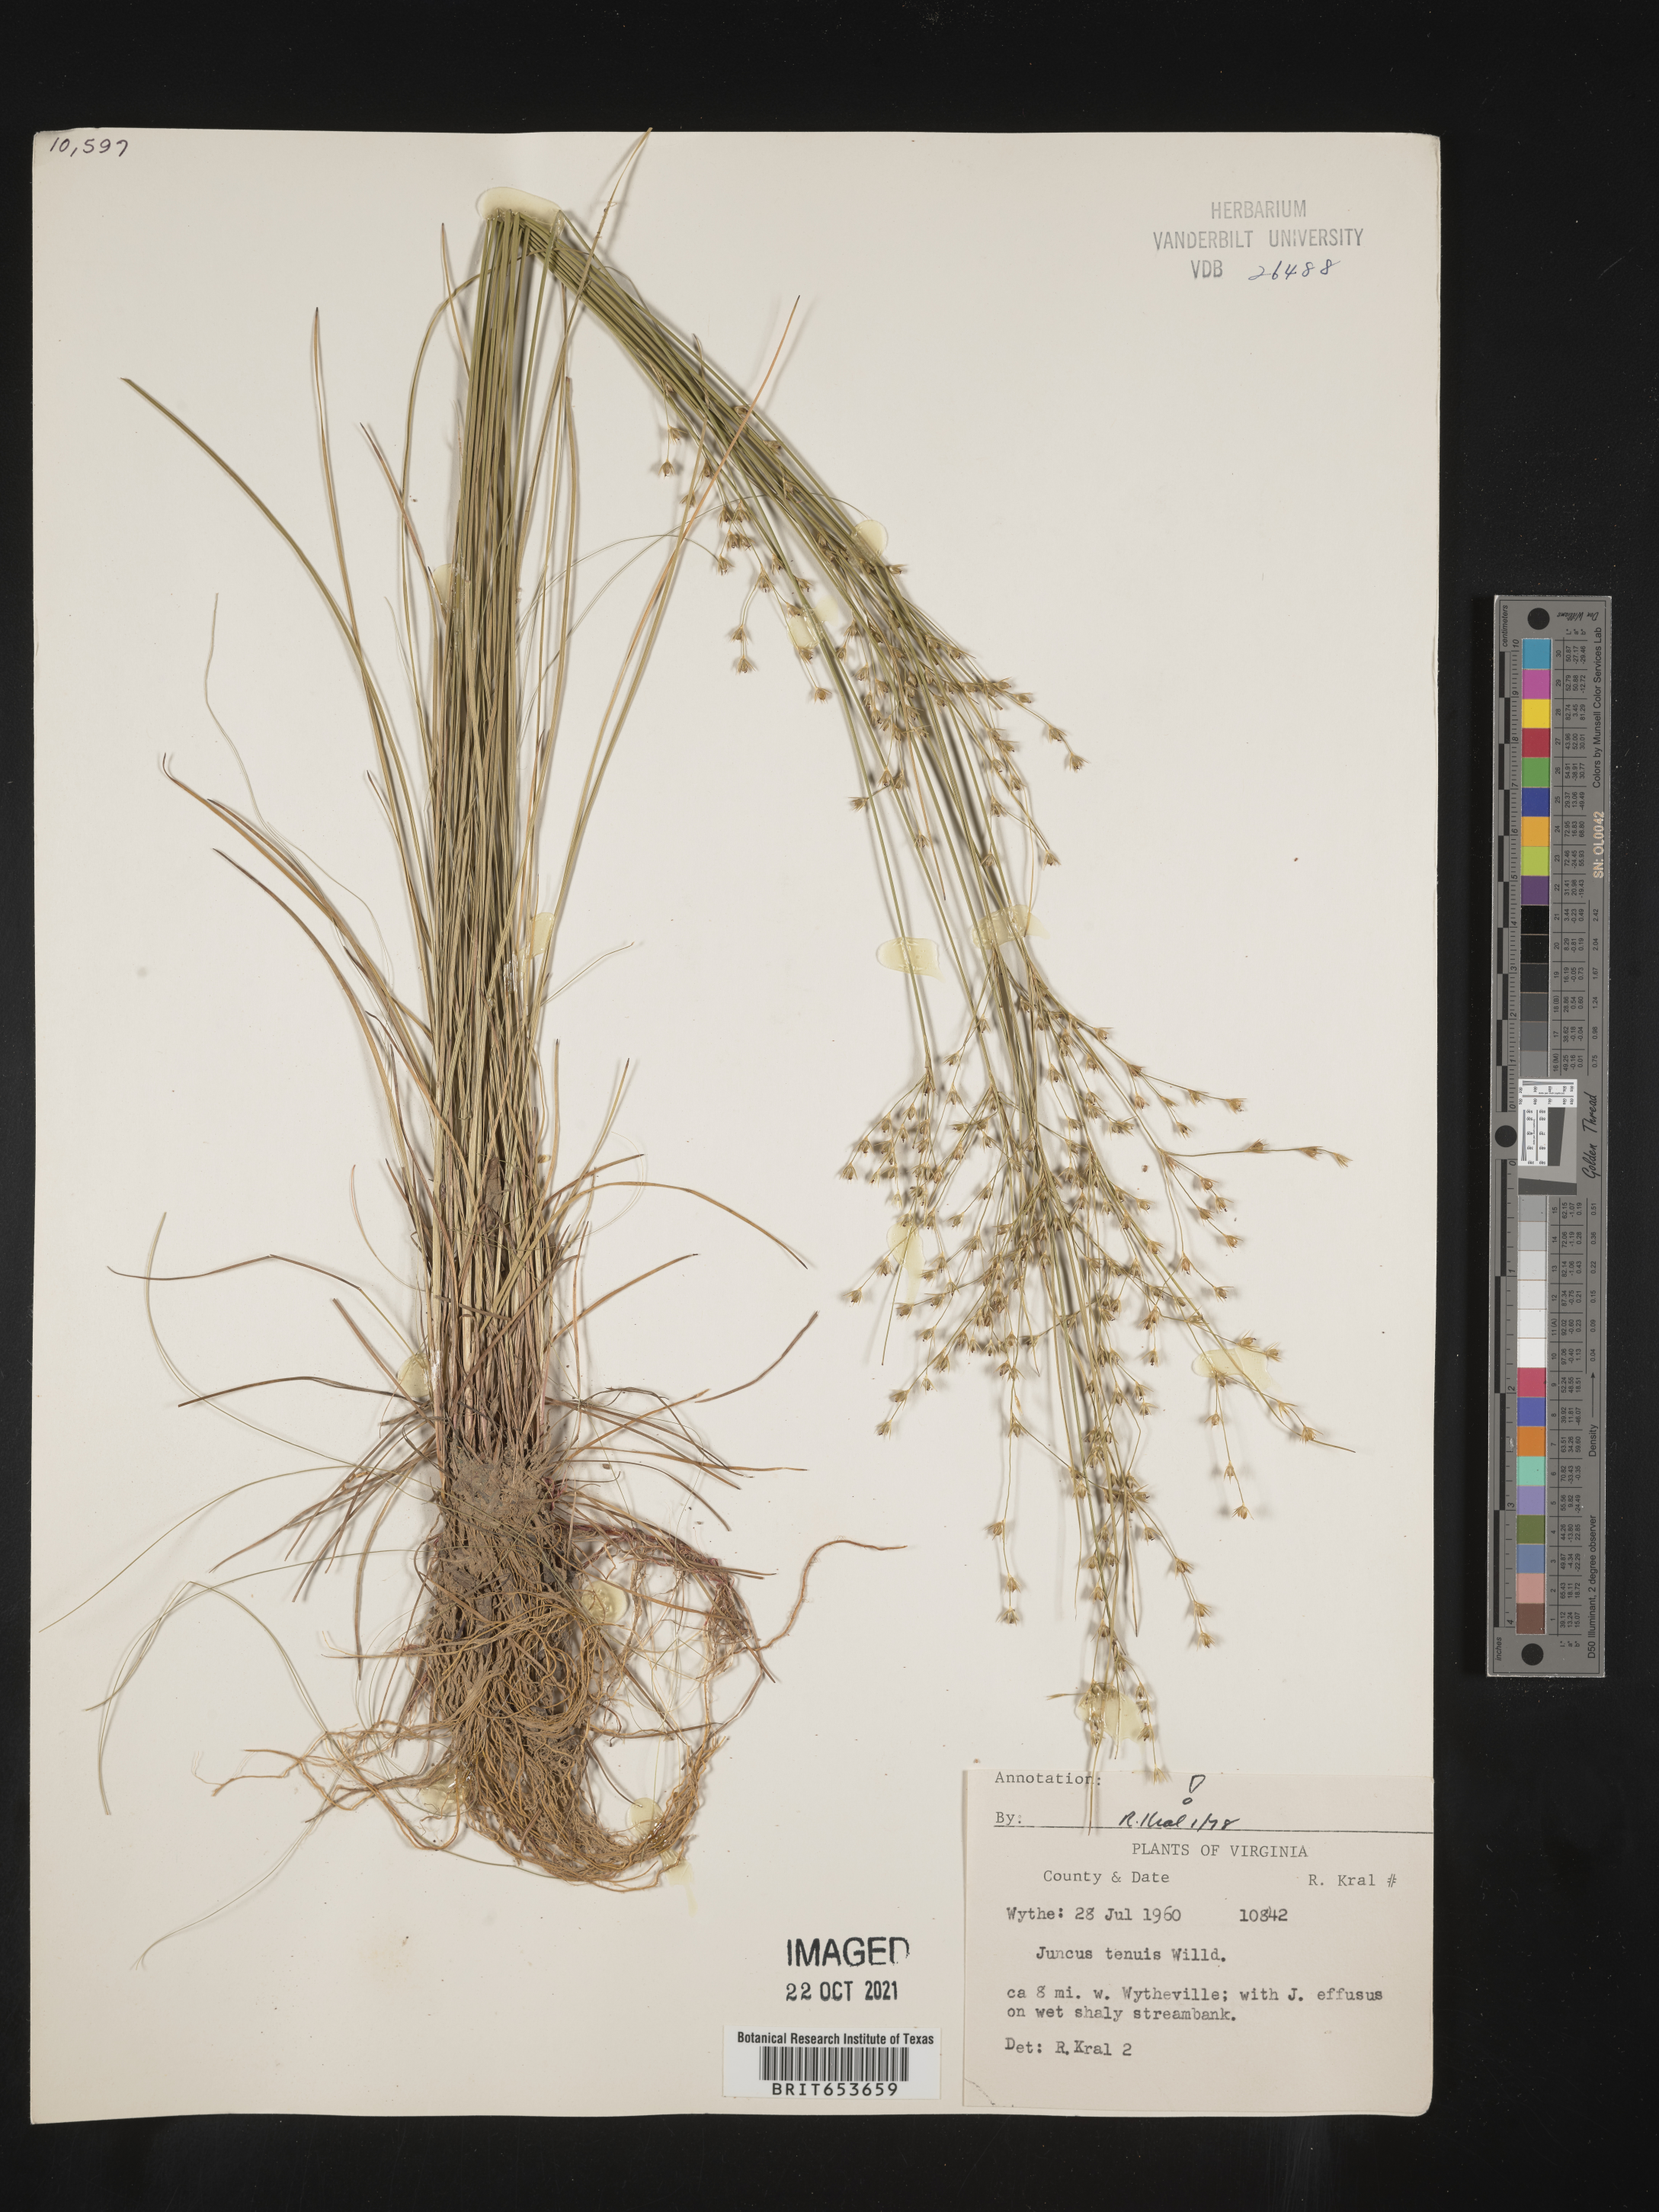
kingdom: Plantae
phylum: Tracheophyta
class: Liliopsida
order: Poales
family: Juncaceae
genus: Juncus
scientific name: Juncus tenuis
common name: Slender rush
